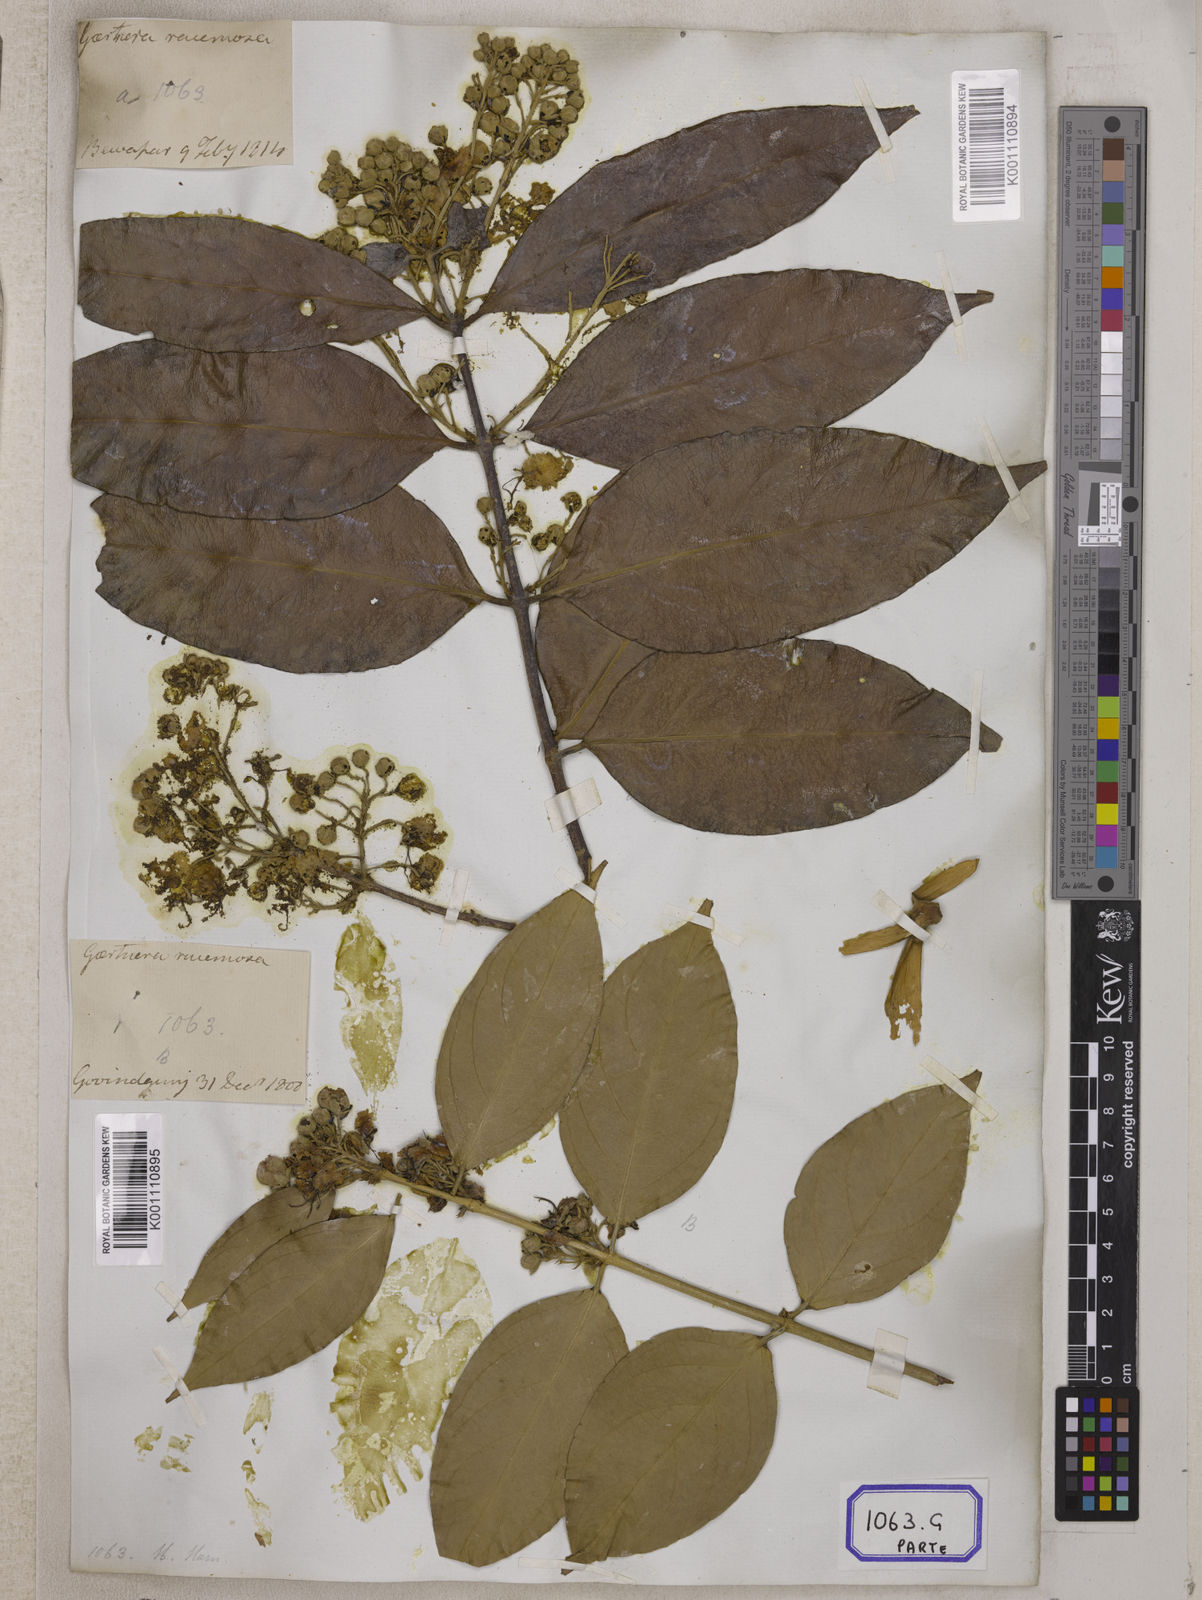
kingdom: Plantae
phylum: Tracheophyta
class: Magnoliopsida
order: Malpighiales
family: Malpighiaceae
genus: Hiptage
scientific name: Hiptage benghalensis
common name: Hiptage
